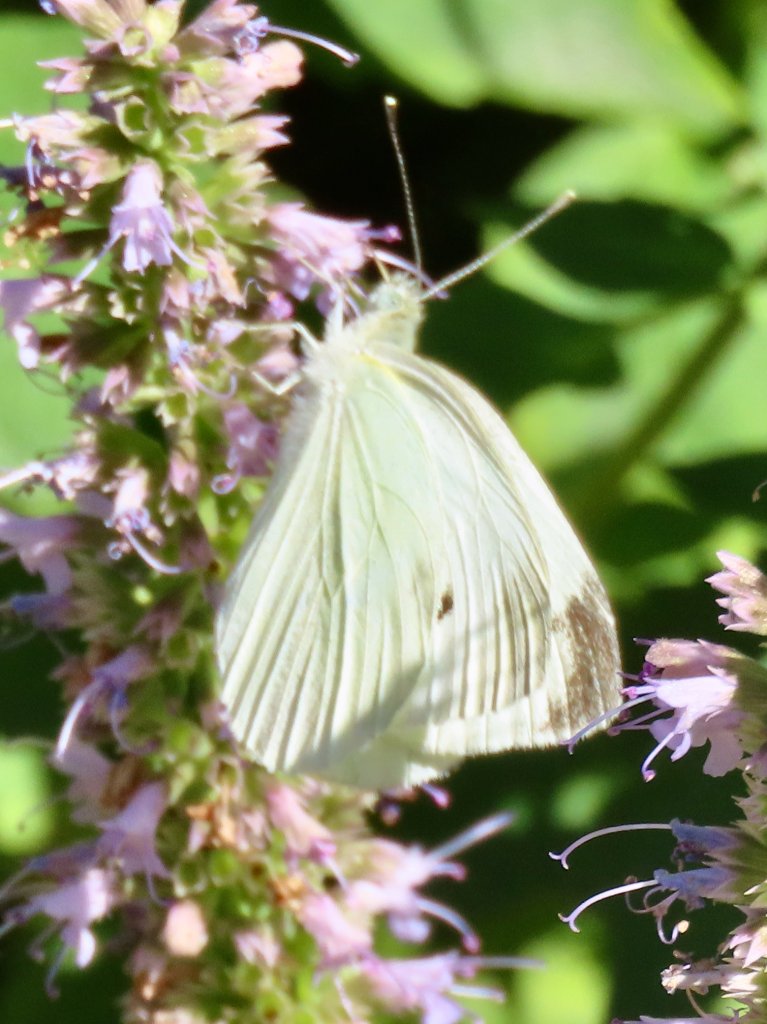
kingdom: Animalia
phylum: Arthropoda
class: Insecta
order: Lepidoptera
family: Pieridae
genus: Pieris
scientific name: Pieris rapae
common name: Cabbage White
